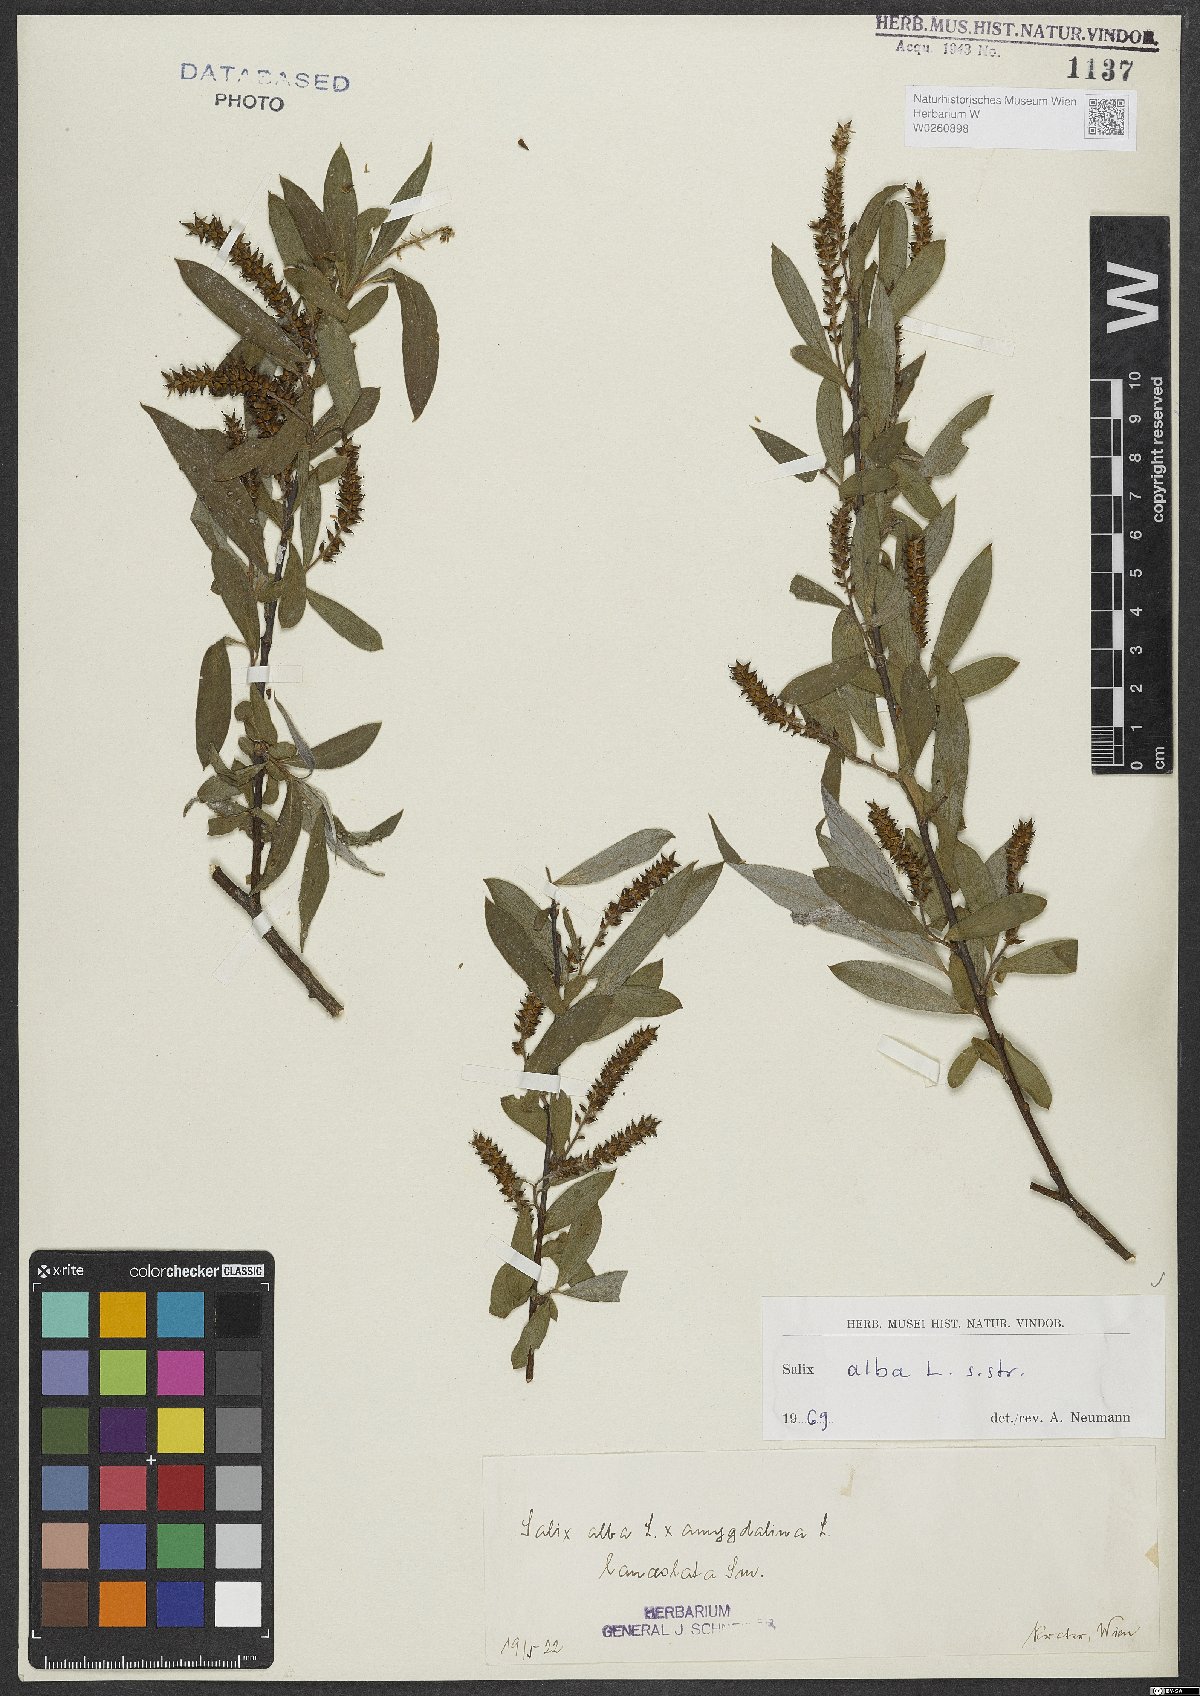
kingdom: Plantae
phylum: Tracheophyta
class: Magnoliopsida
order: Malpighiales
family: Salicaceae
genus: Salix
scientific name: Salix alba
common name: White willow
